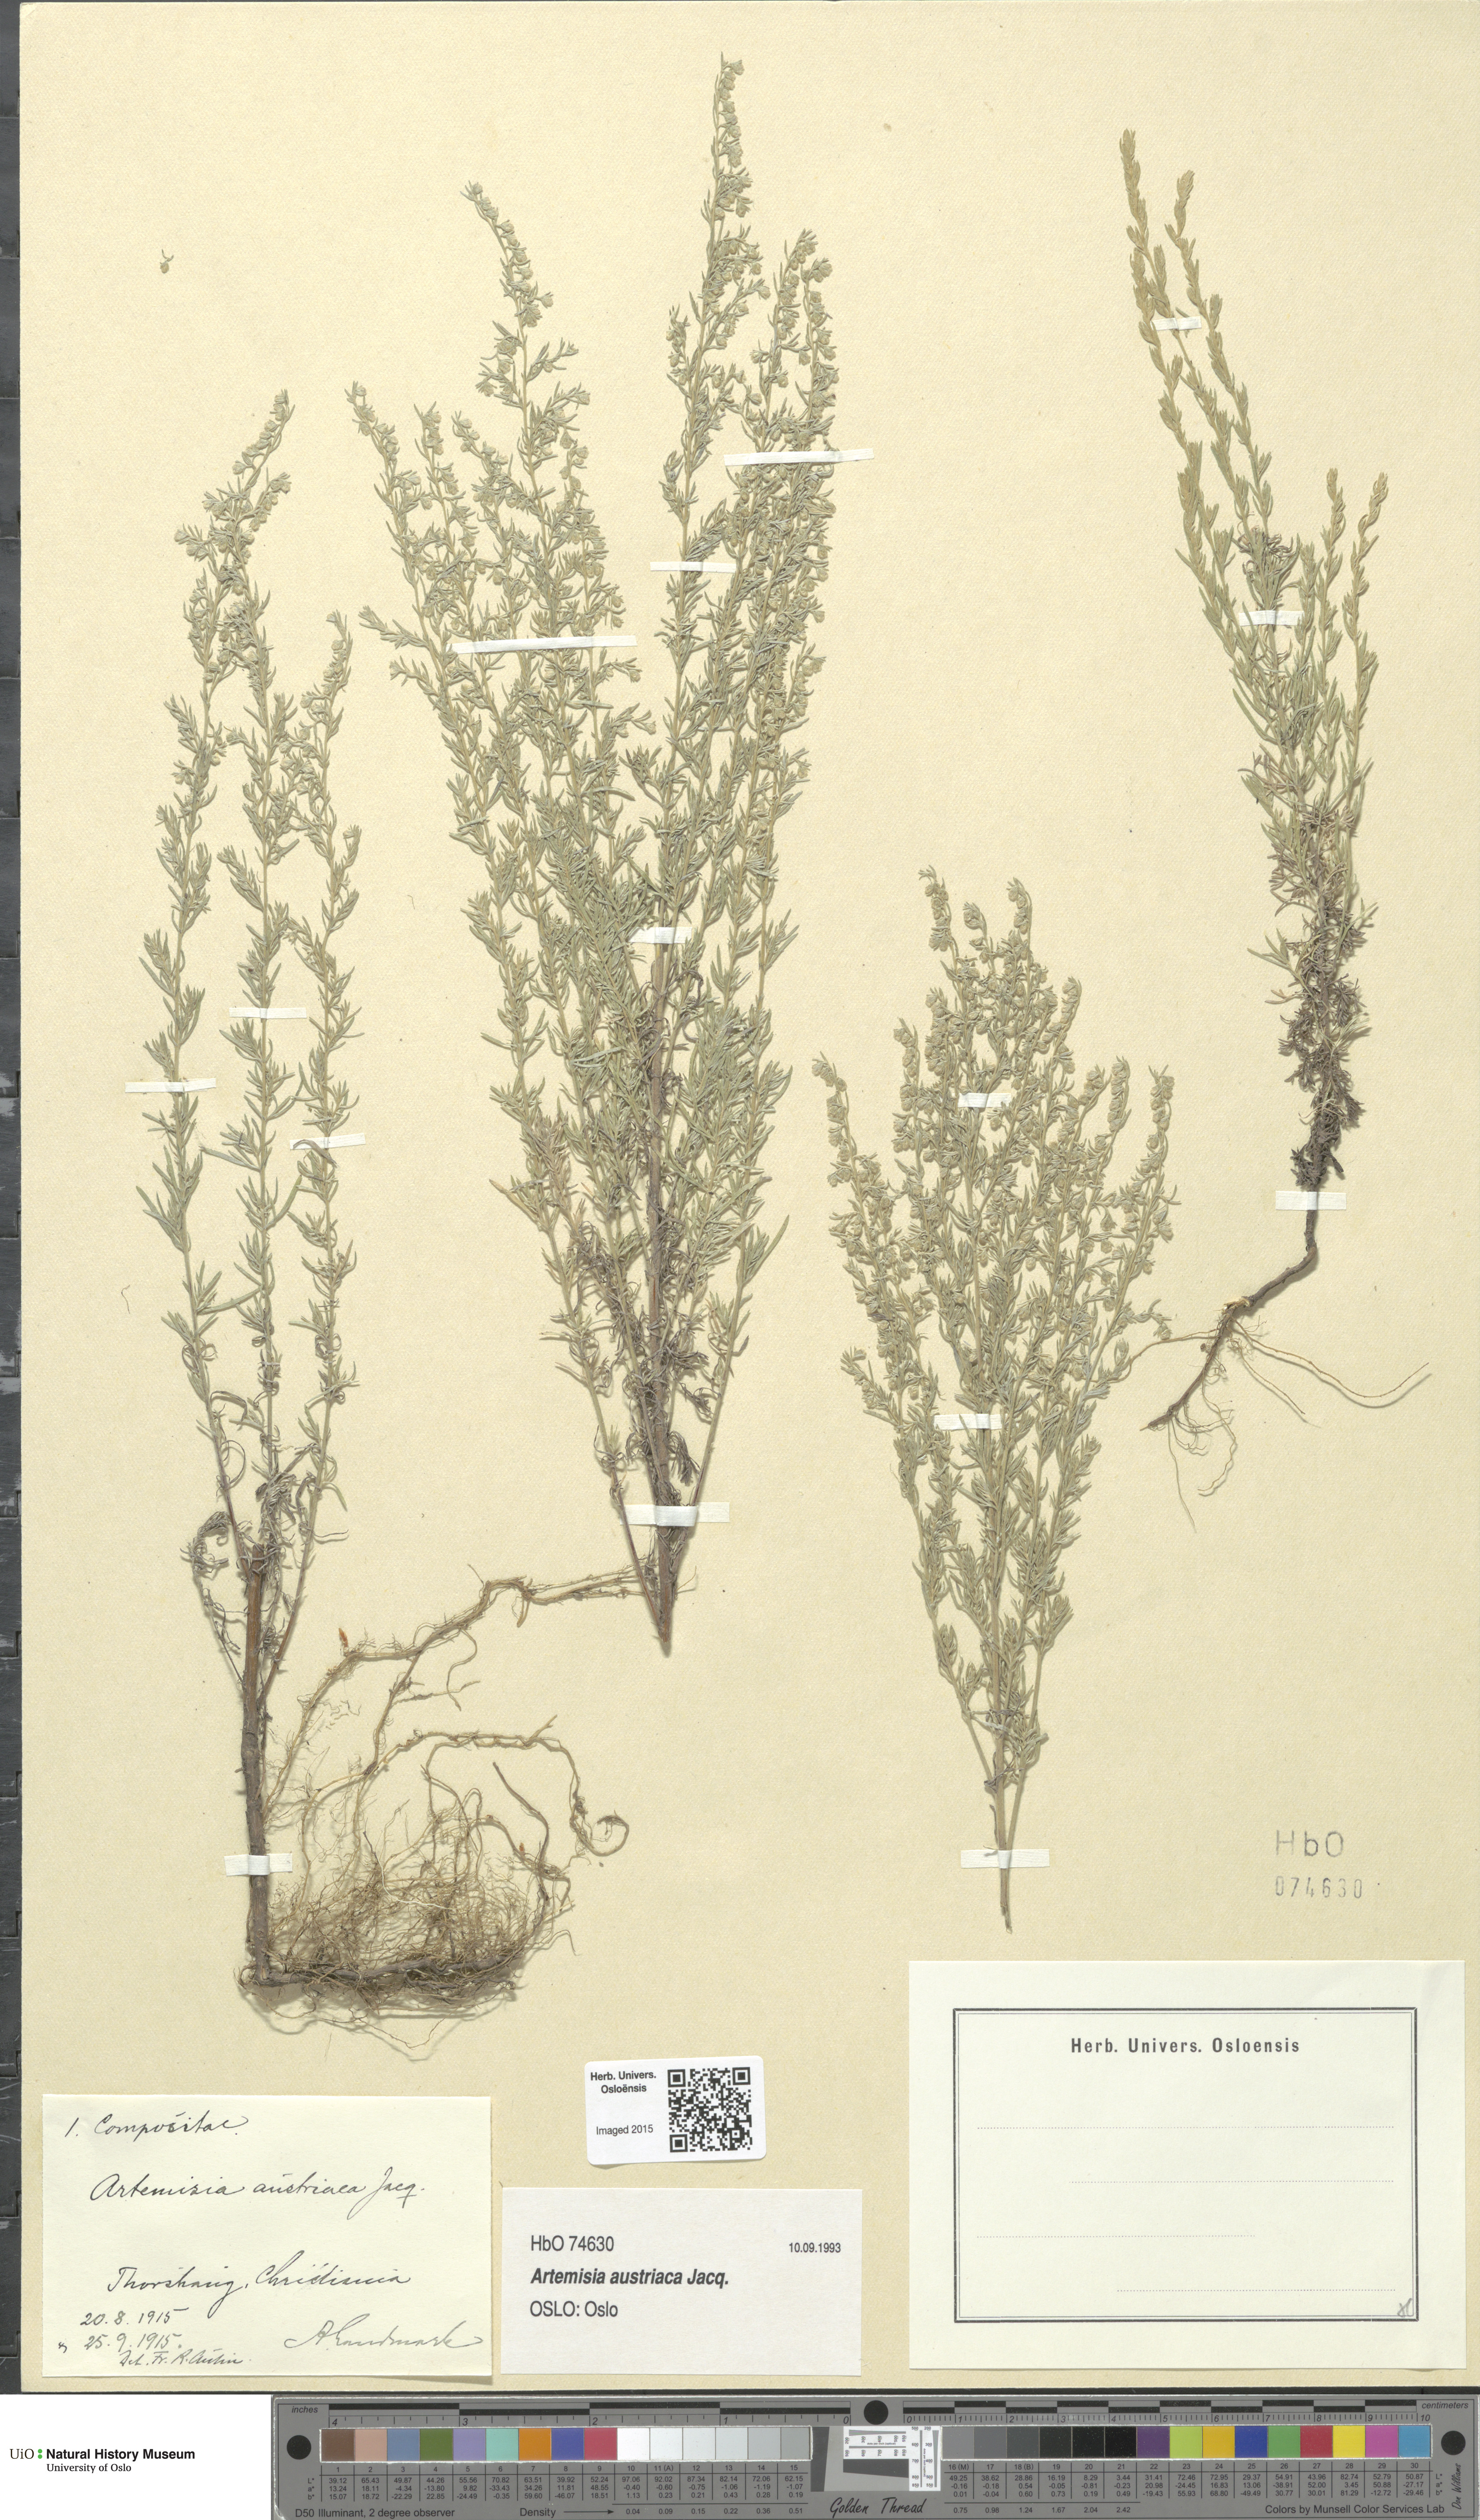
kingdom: Plantae
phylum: Tracheophyta
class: Magnoliopsida
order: Asterales
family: Asteraceae
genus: Artemisia
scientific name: Artemisia austriaca
